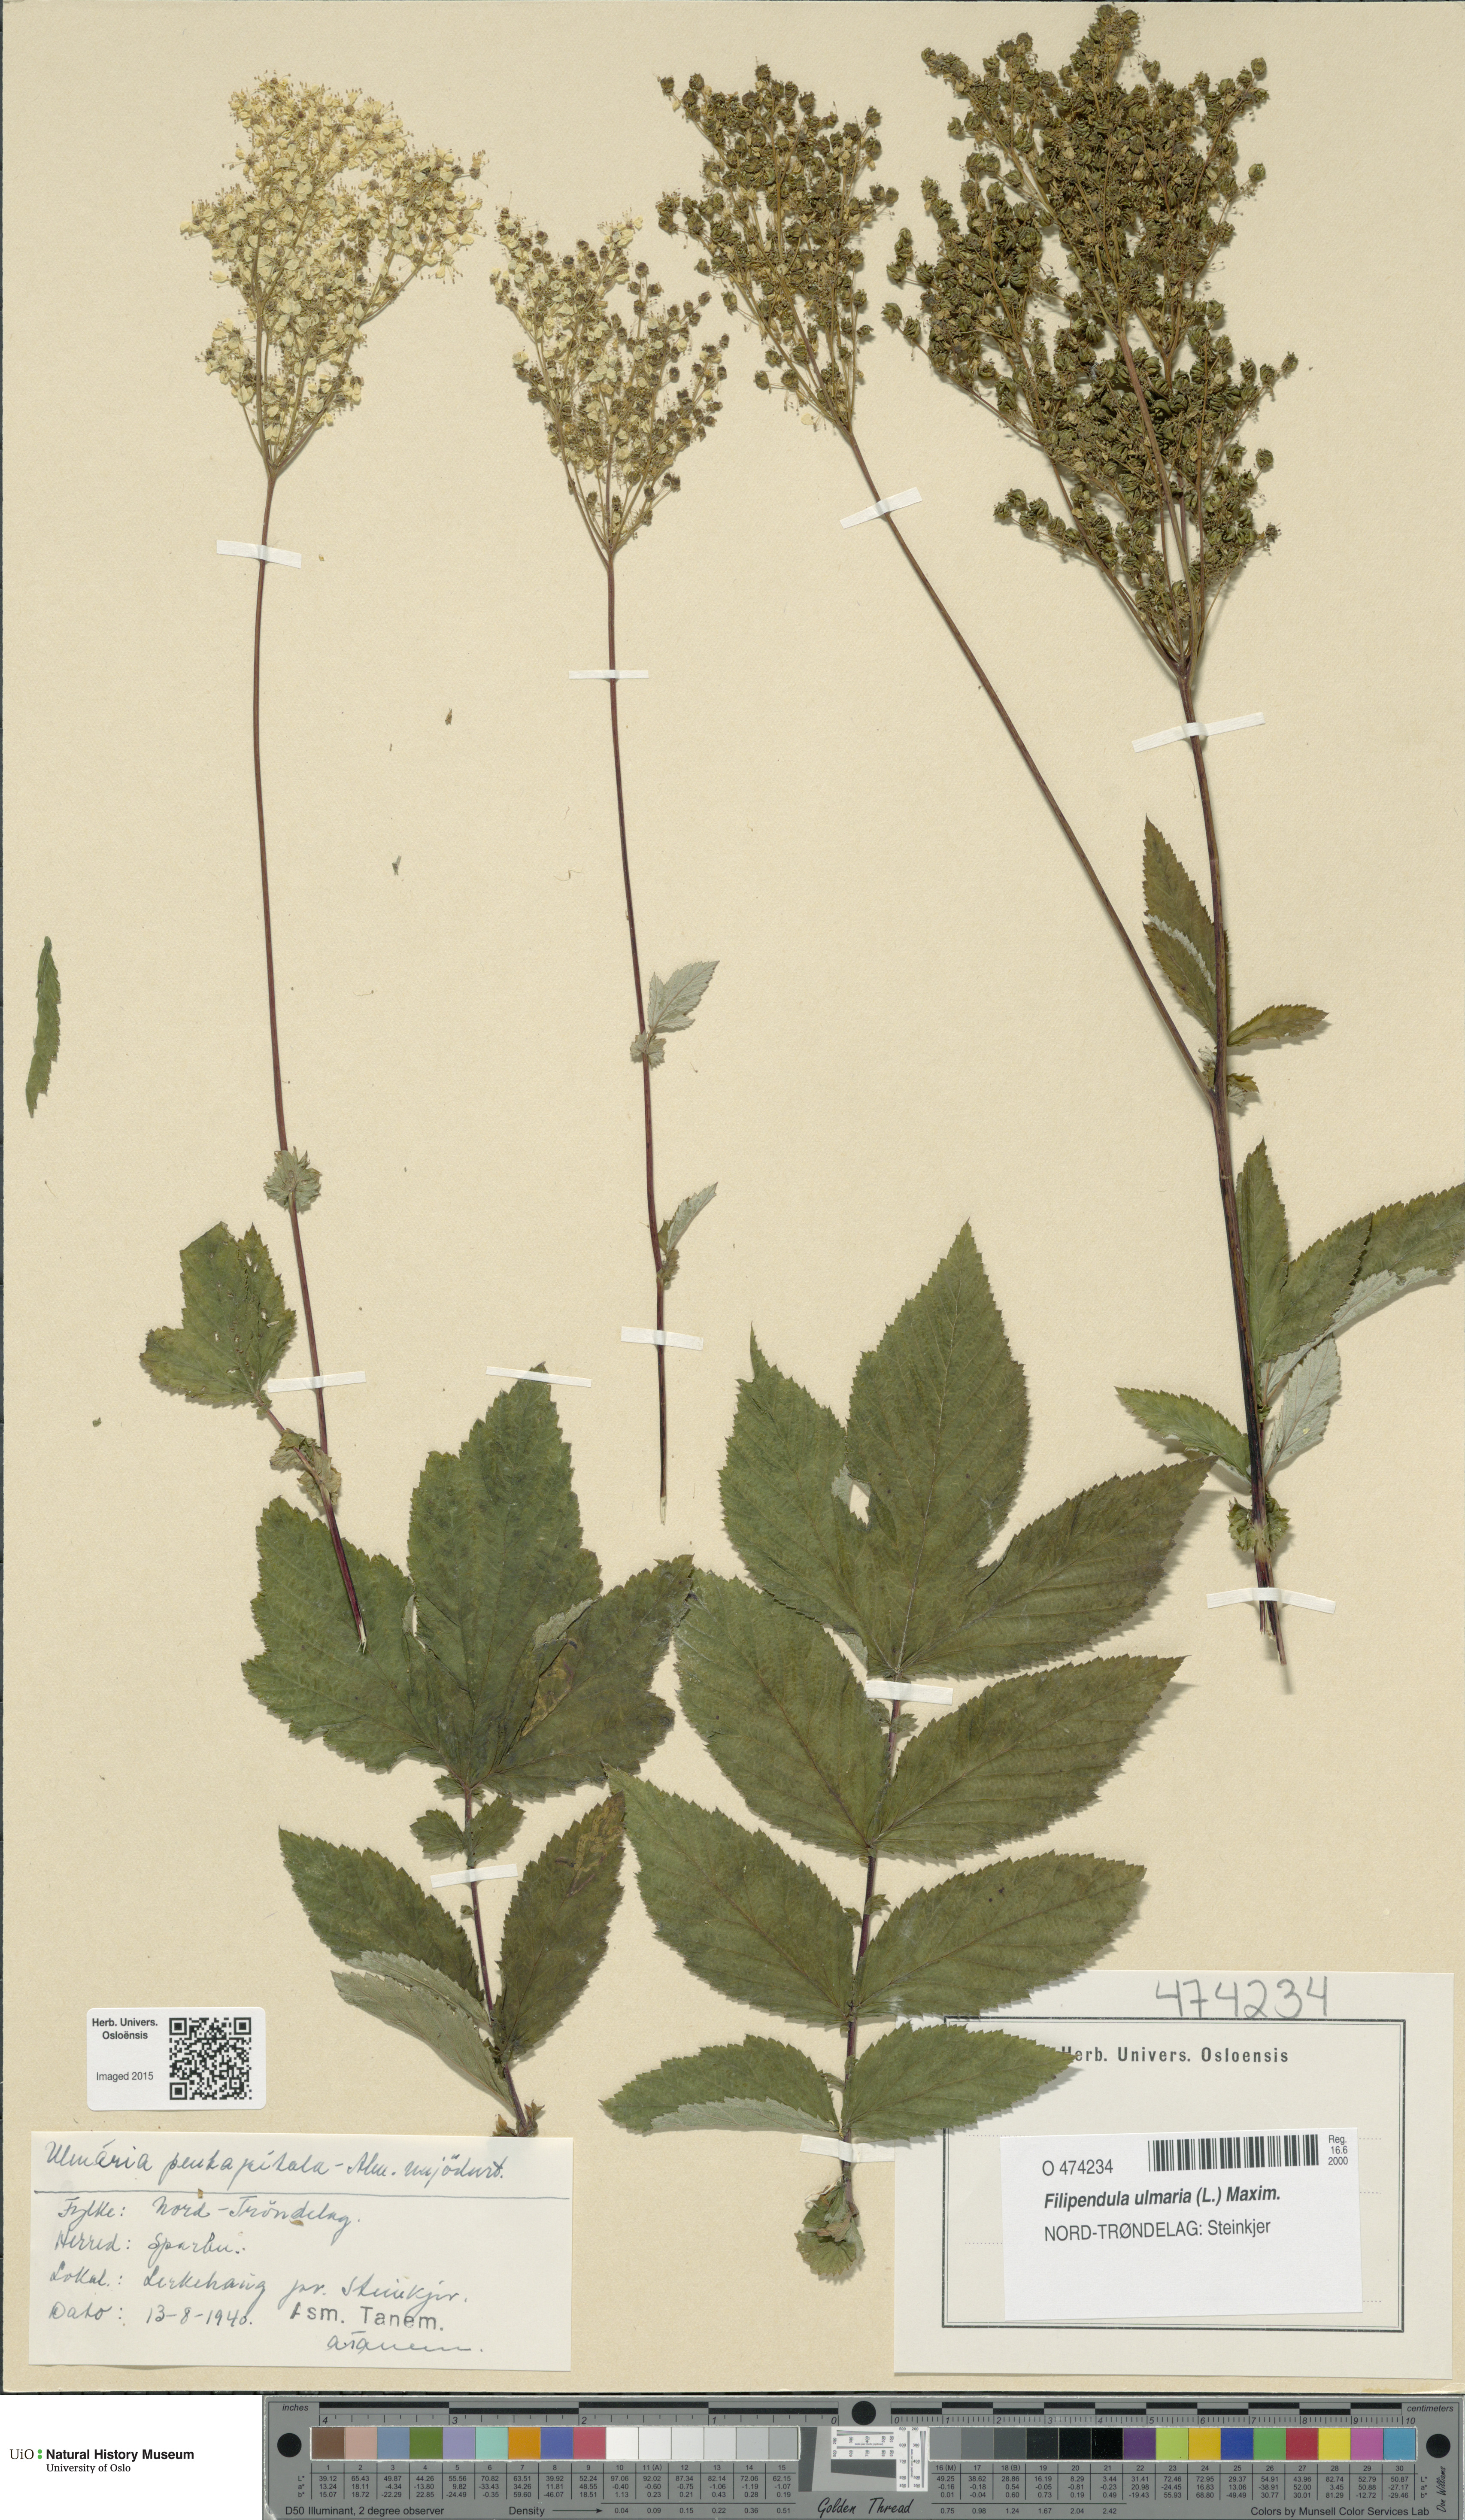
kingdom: Plantae
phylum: Tracheophyta
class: Magnoliopsida
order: Rosales
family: Rosaceae
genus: Filipendula
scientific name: Filipendula ulmaria
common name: Meadowsweet
